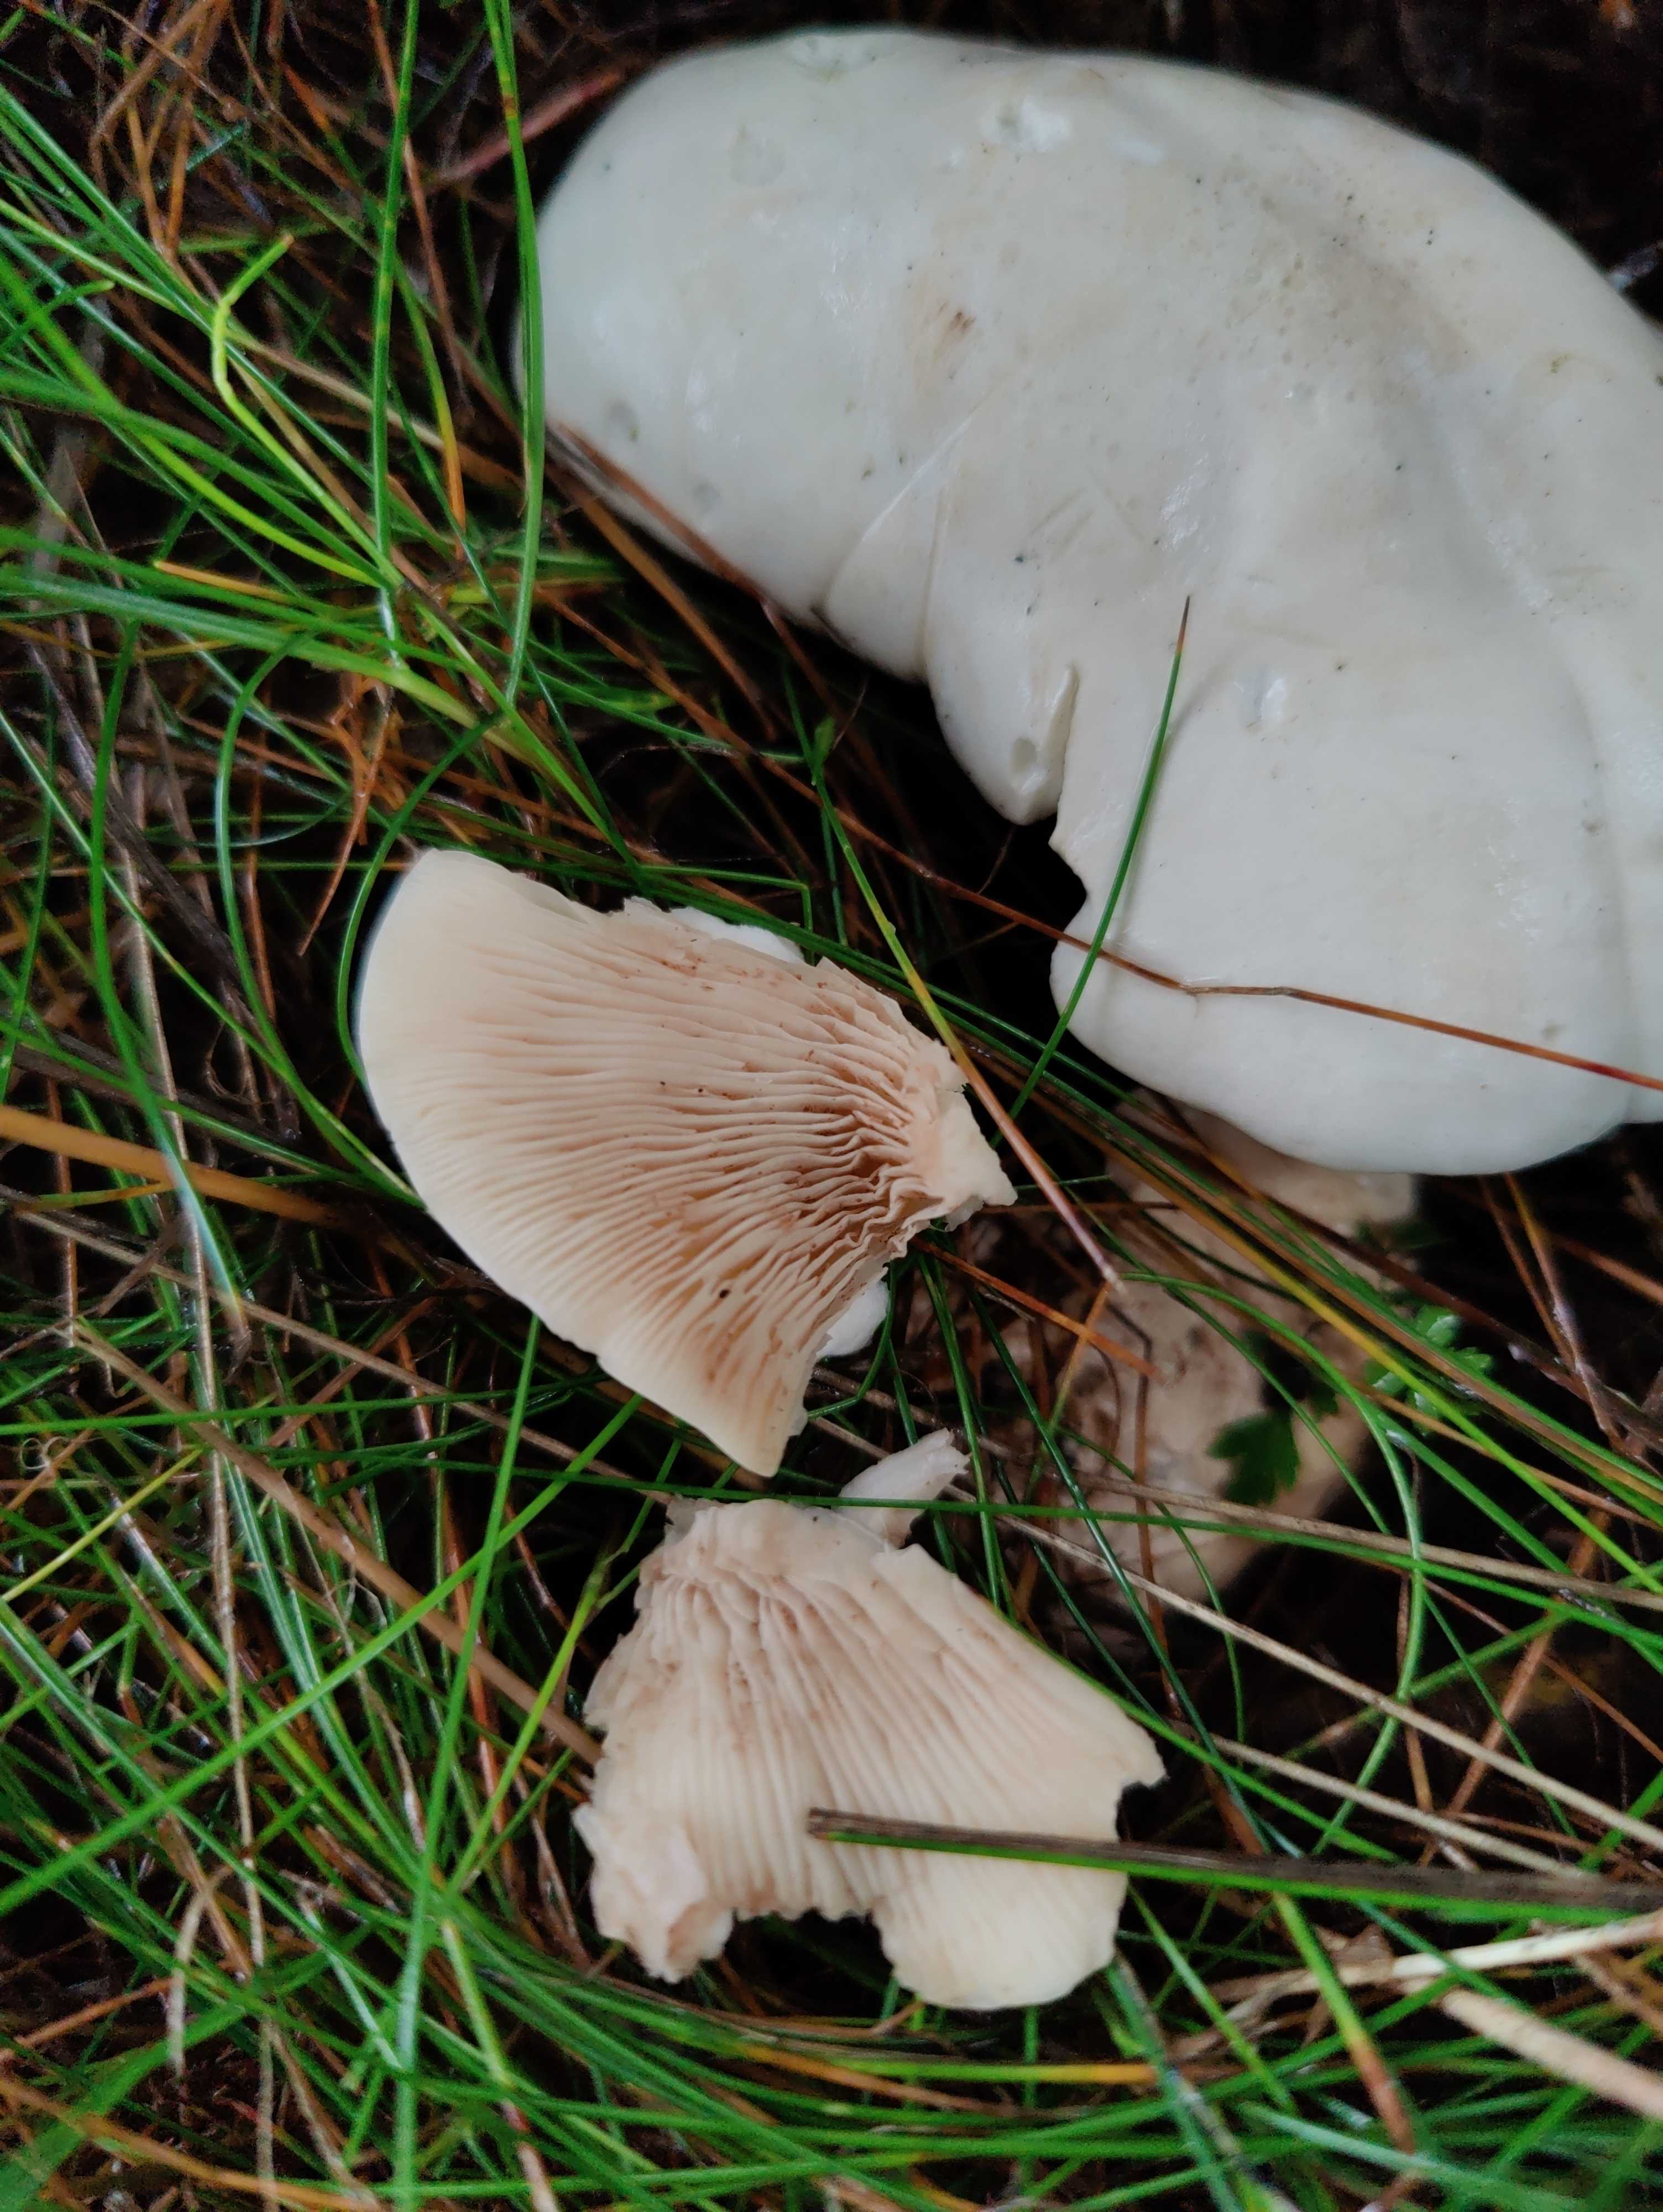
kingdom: Fungi
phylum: Basidiomycota
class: Agaricomycetes
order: Agaricales
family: Entolomataceae
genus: Clitopilus
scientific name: Clitopilus prunulus
